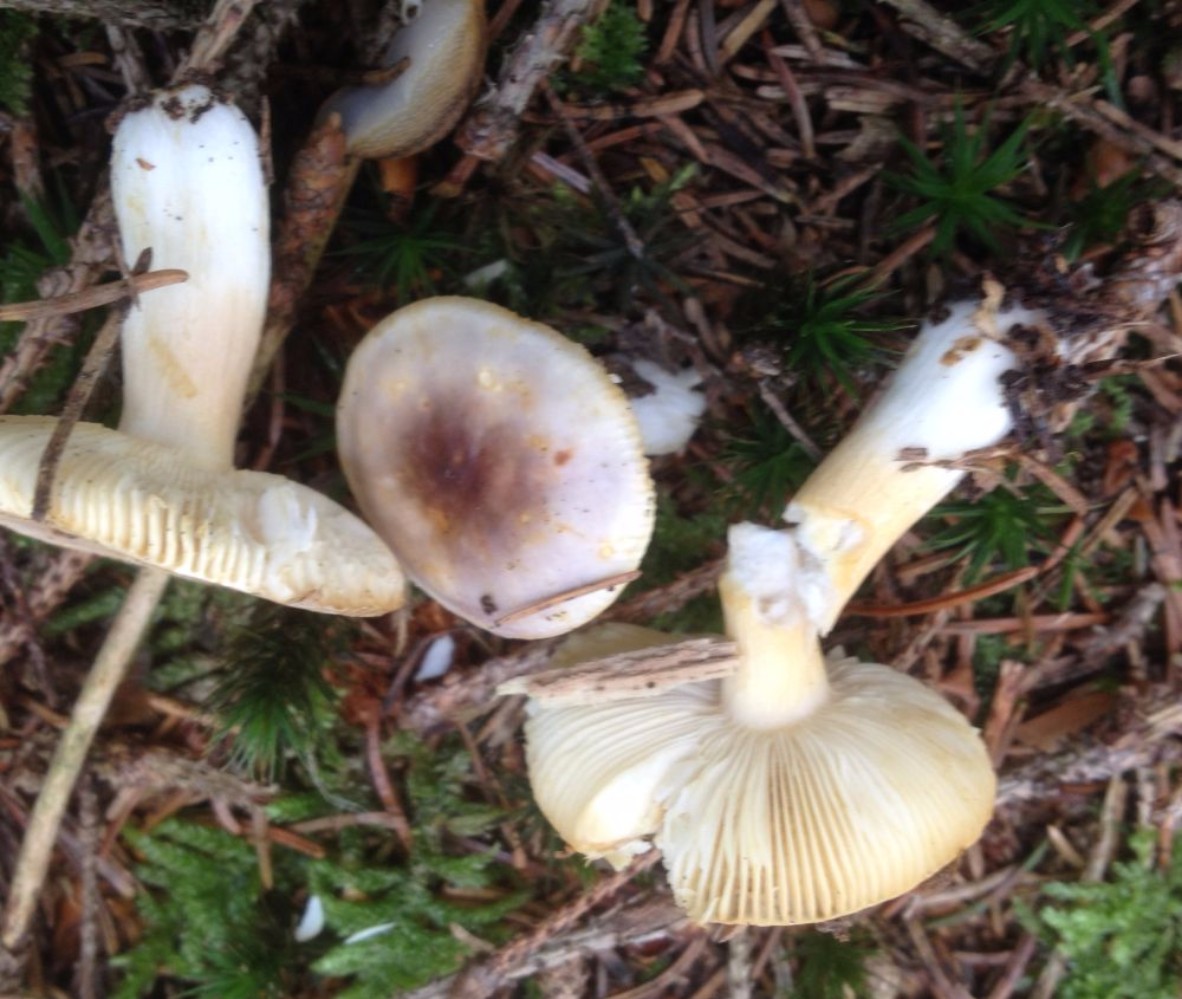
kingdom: Fungi
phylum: Basidiomycota
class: Agaricomycetes
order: Russulales
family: Russulaceae
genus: Russula
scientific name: Russula puellaris
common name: gulstokket skørhat
